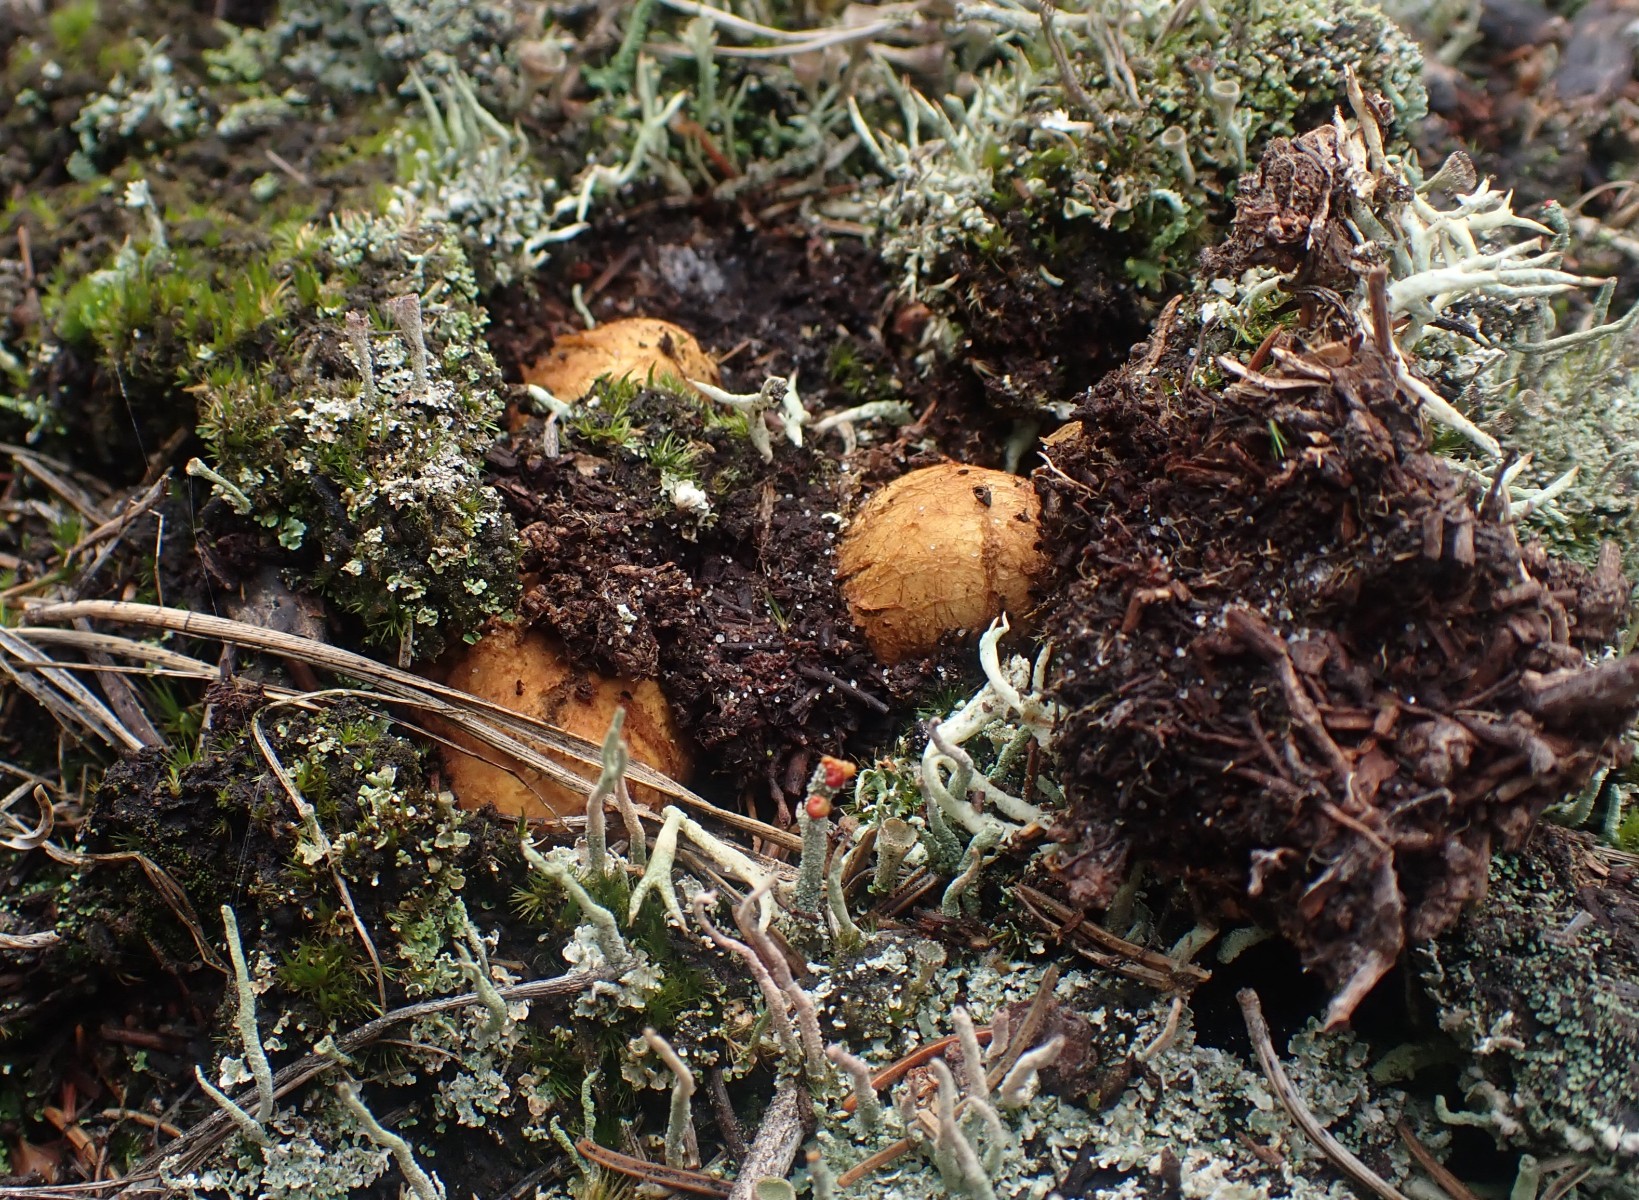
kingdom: Fungi
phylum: Basidiomycota
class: Agaricomycetes
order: Boletales
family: Rhizopogonaceae
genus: Rhizopogon
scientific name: Rhizopogon obtextus
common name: gul skægtrøffel
